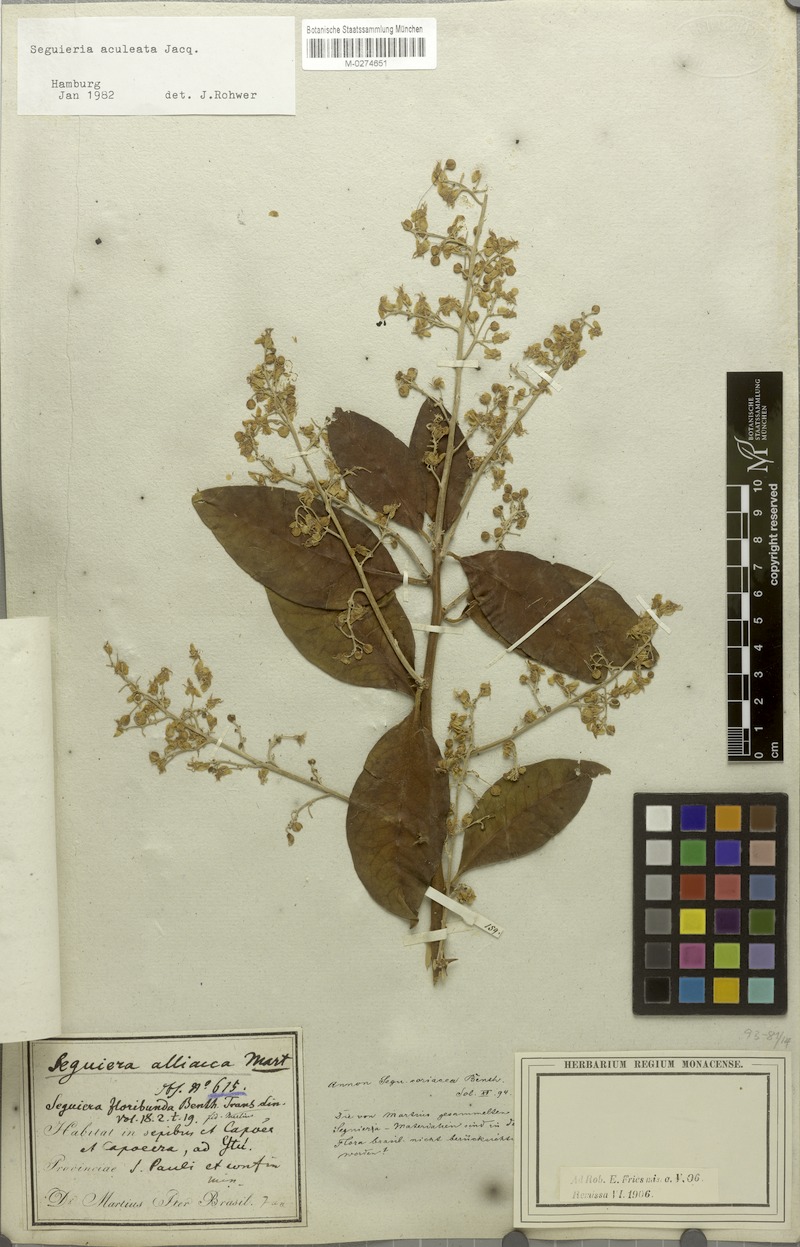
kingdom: Plantae
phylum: Tracheophyta
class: Magnoliopsida
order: Caryophyllales
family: Phytolaccaceae
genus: Seguieria
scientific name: Seguieria aculeata
